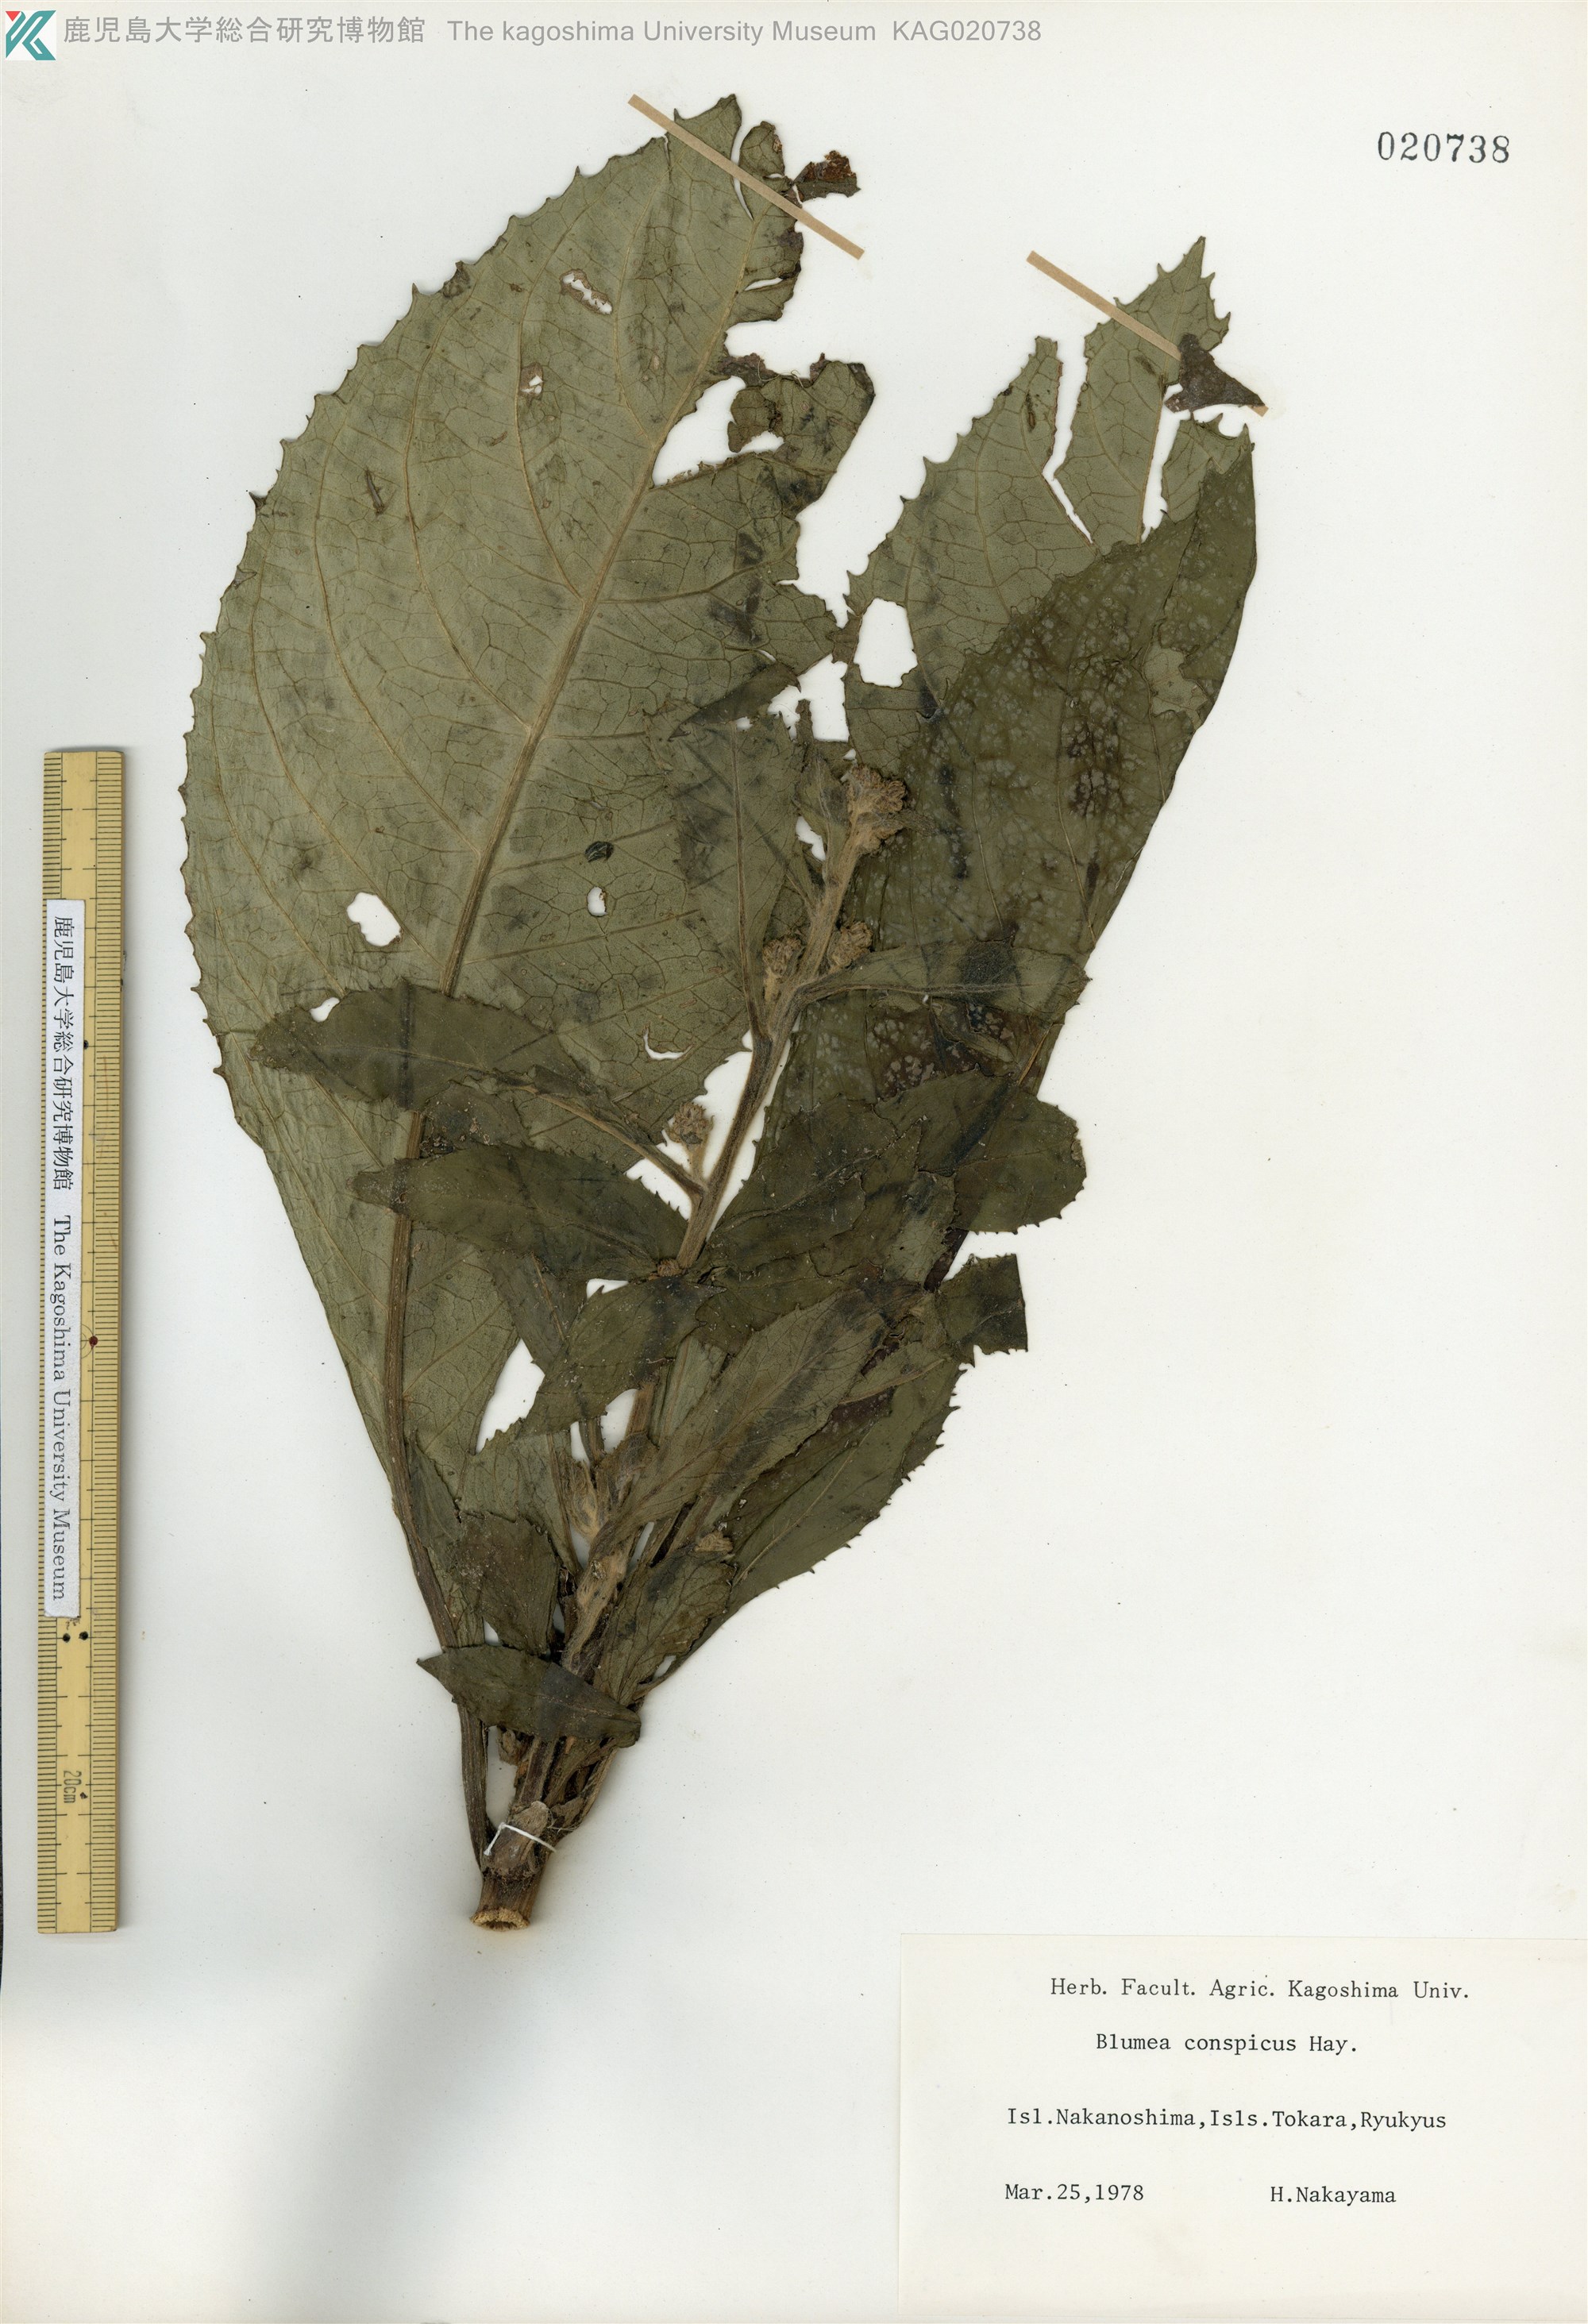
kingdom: Plantae
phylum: Tracheophyta
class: Magnoliopsida
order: Asterales
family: Asteraceae
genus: Blumea
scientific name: Blumea conspicua
